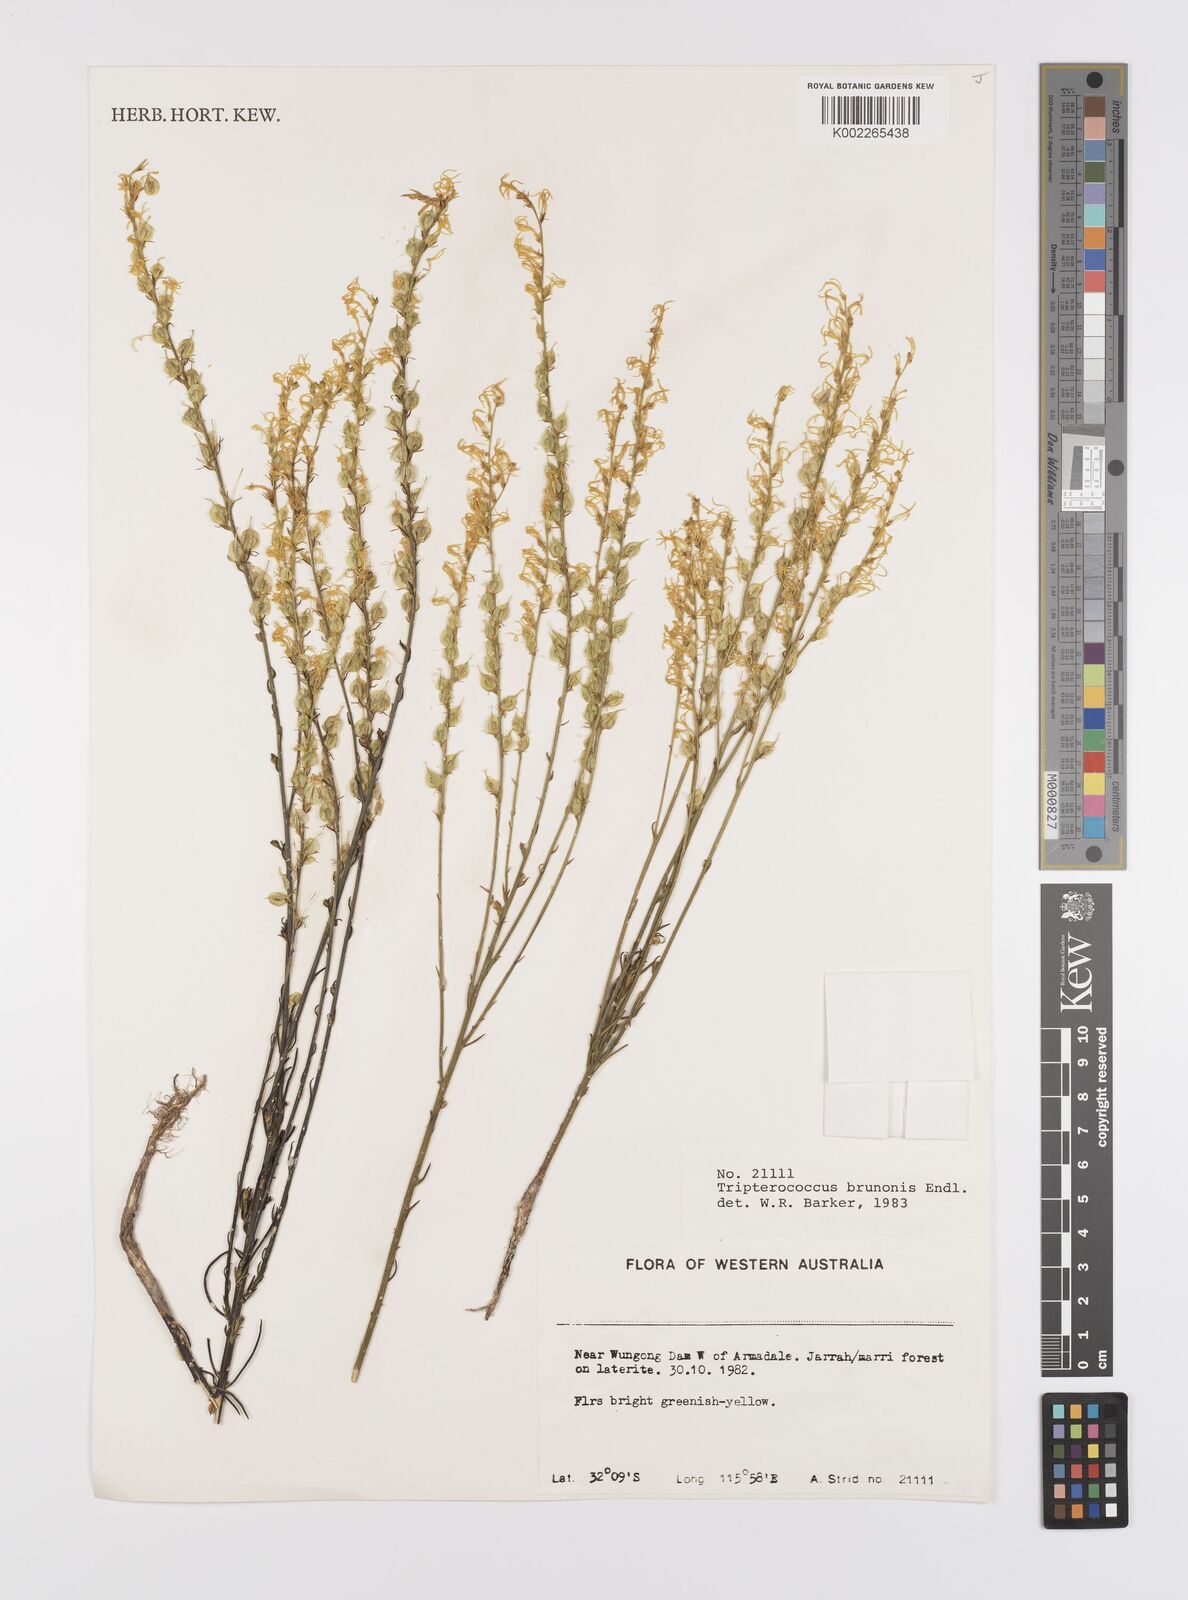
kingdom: Plantae
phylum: Tracheophyta
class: Magnoliopsida
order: Celastrales
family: Celastraceae
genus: Tripterococcus
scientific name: Tripterococcus brunonis
